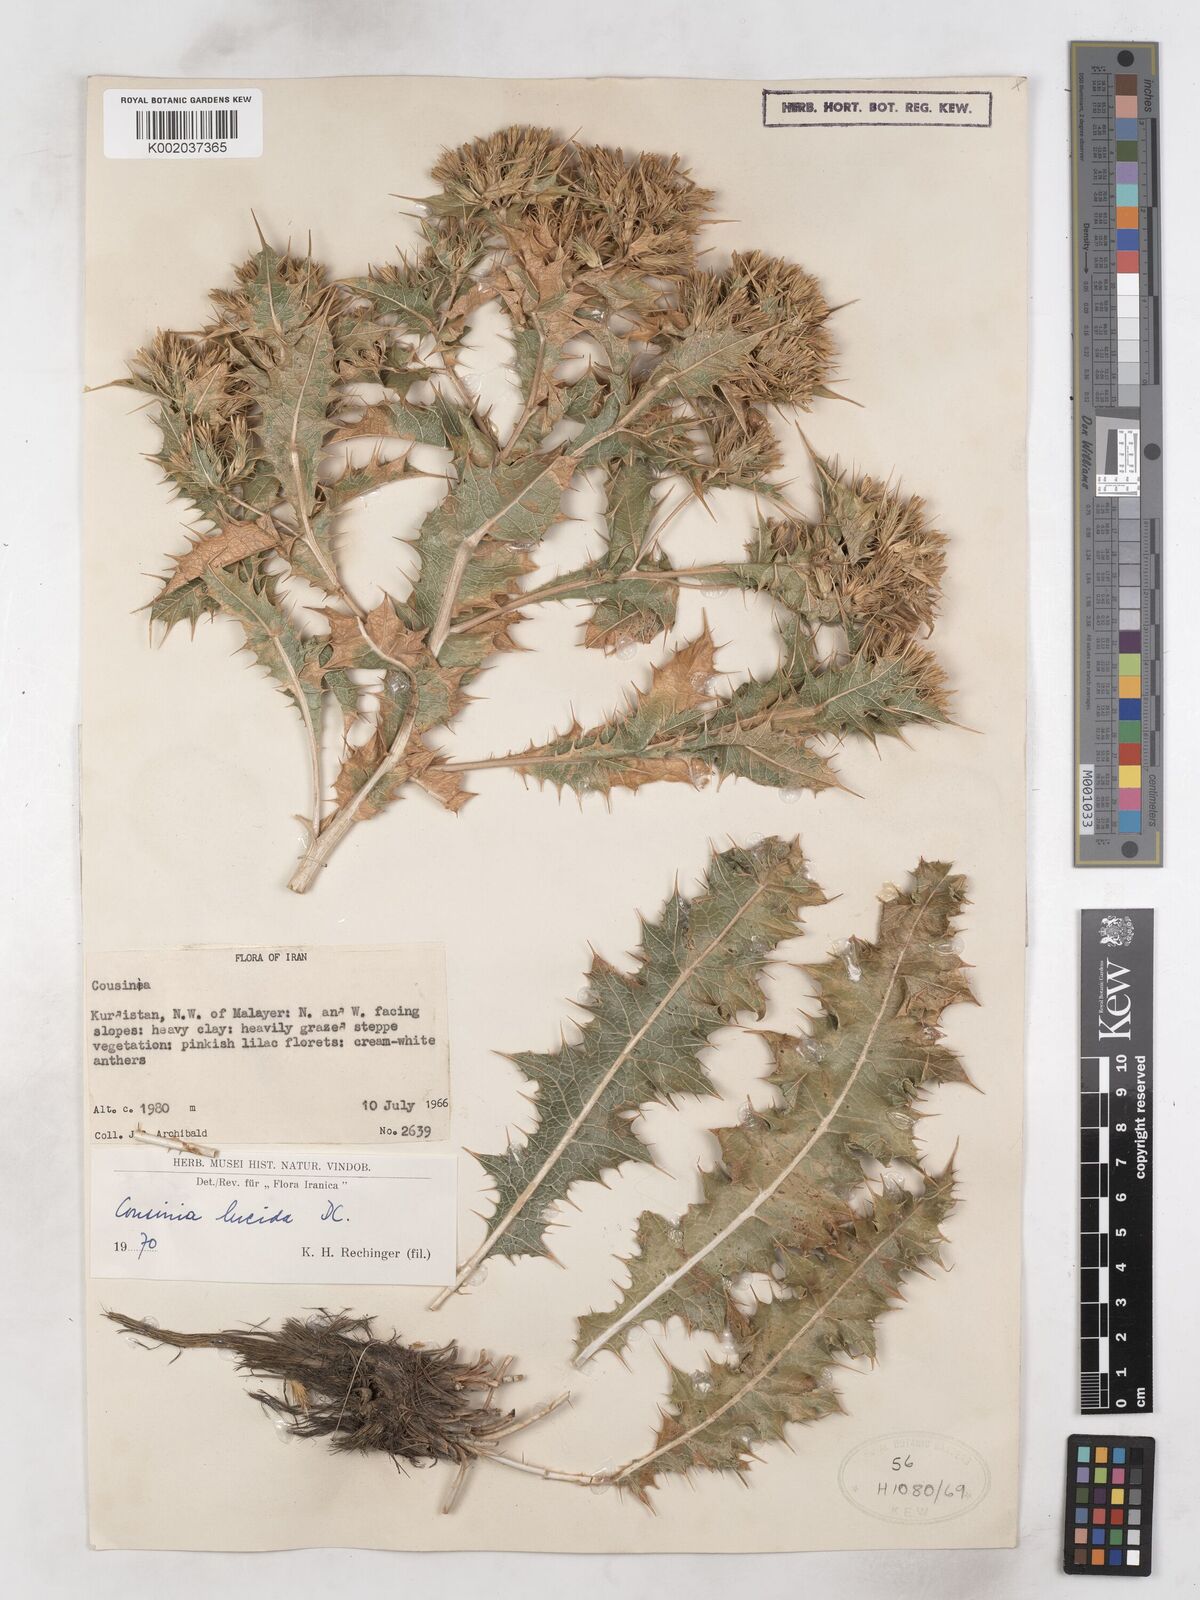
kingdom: Plantae
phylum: Tracheophyta
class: Magnoliopsida
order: Asterales
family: Asteraceae
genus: Cousinia
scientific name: Cousinia lucida
